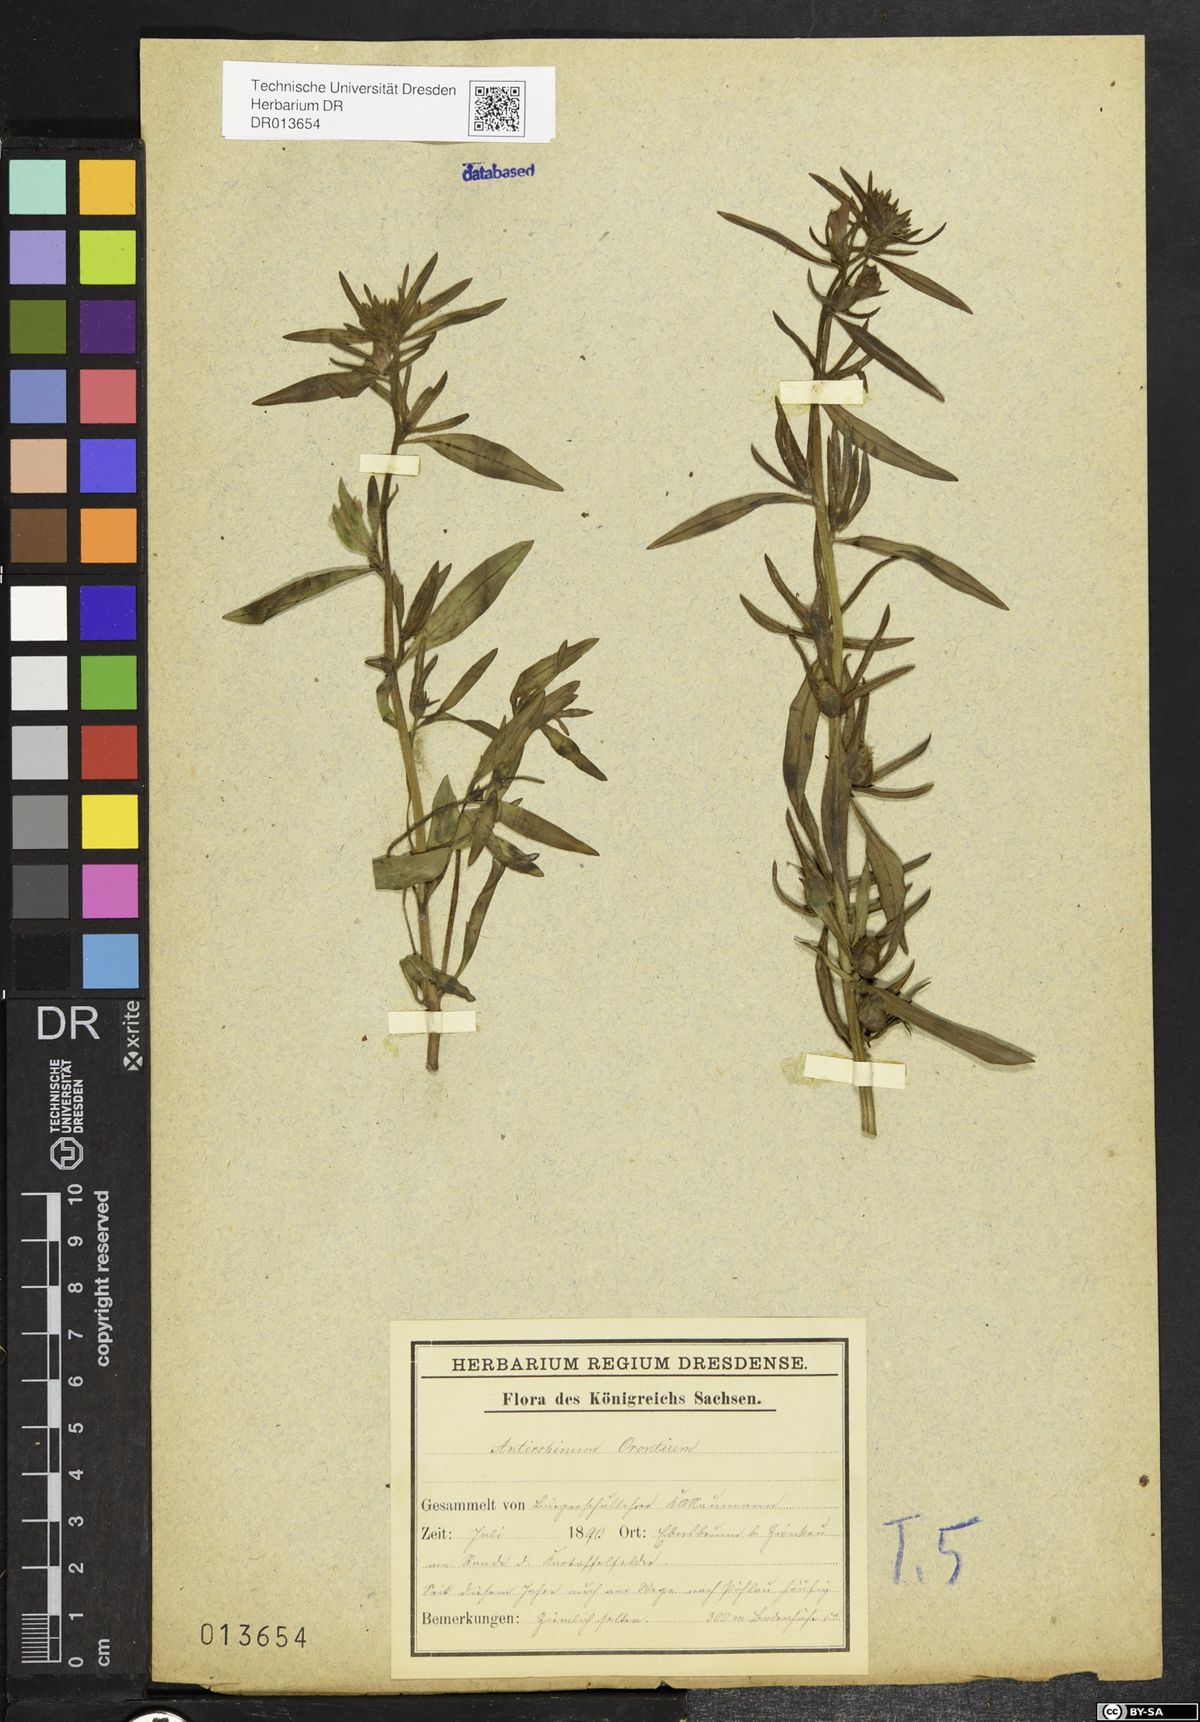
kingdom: Plantae
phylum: Tracheophyta
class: Magnoliopsida
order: Lamiales
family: Plantaginaceae
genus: Misopates
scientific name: Misopates orontium
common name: Weasel's-snout
